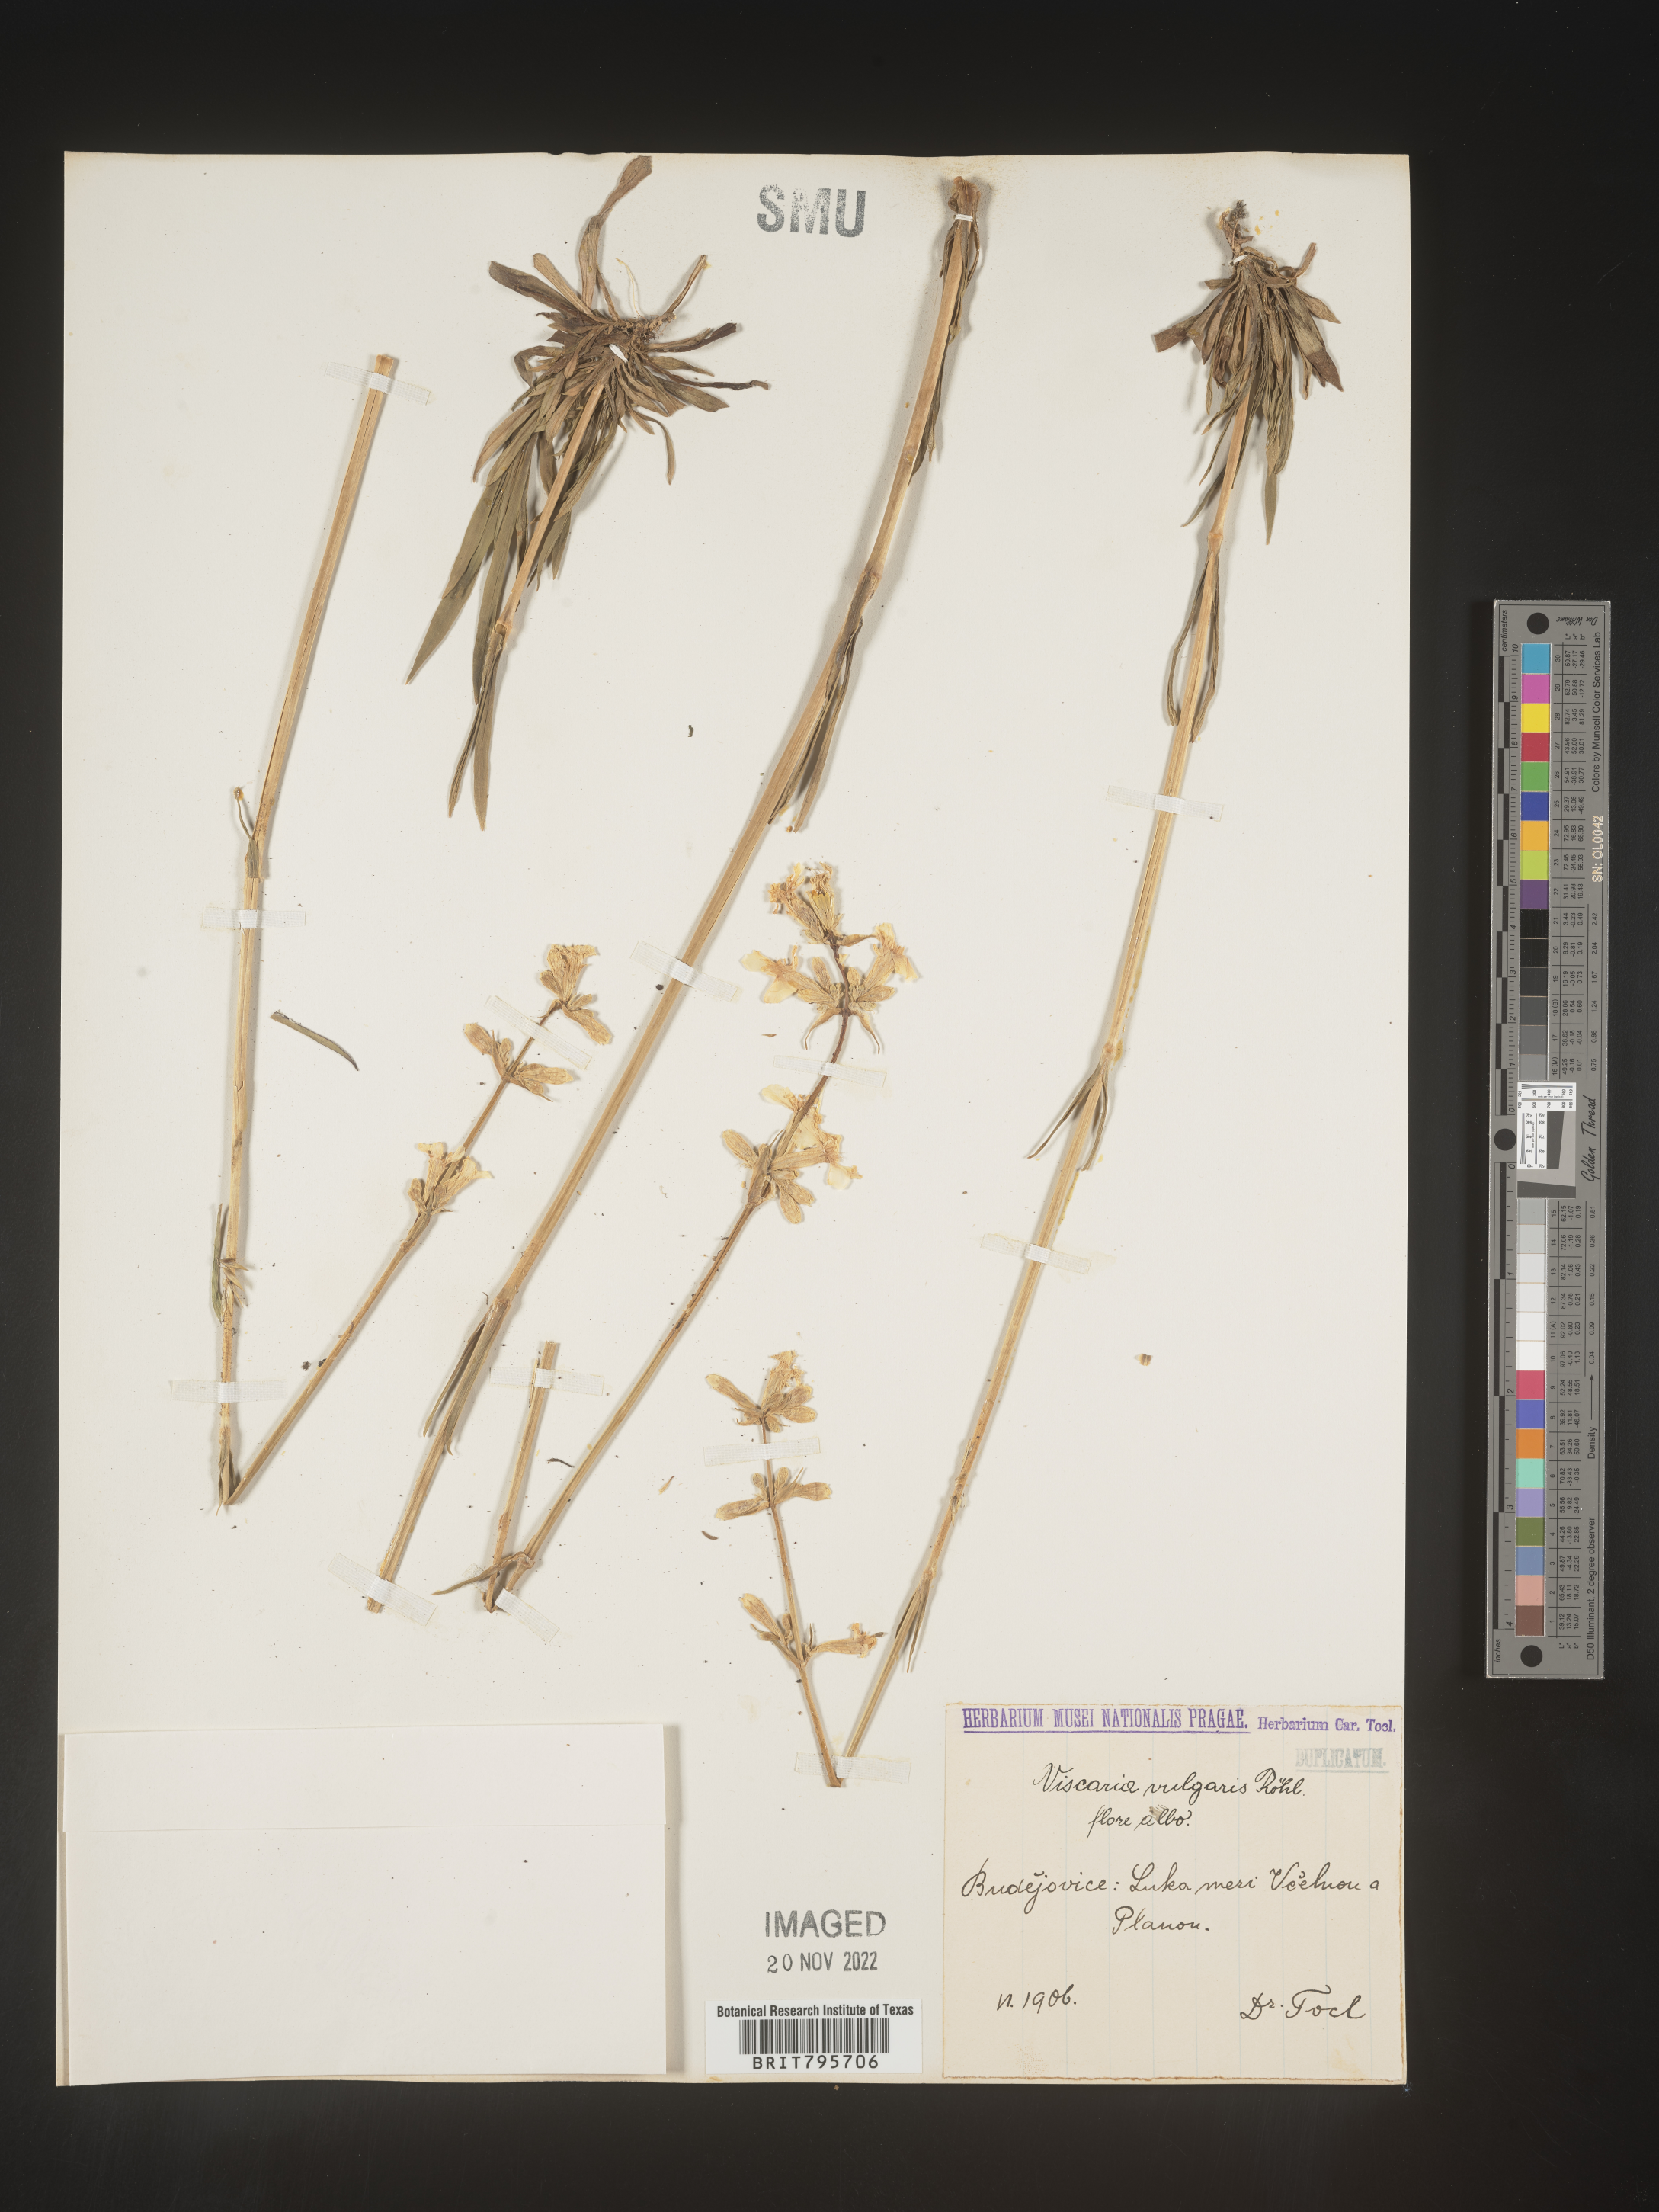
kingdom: Plantae
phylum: Tracheophyta
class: Magnoliopsida
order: Caryophyllales
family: Caryophyllaceae
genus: Viscaria
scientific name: Viscaria
